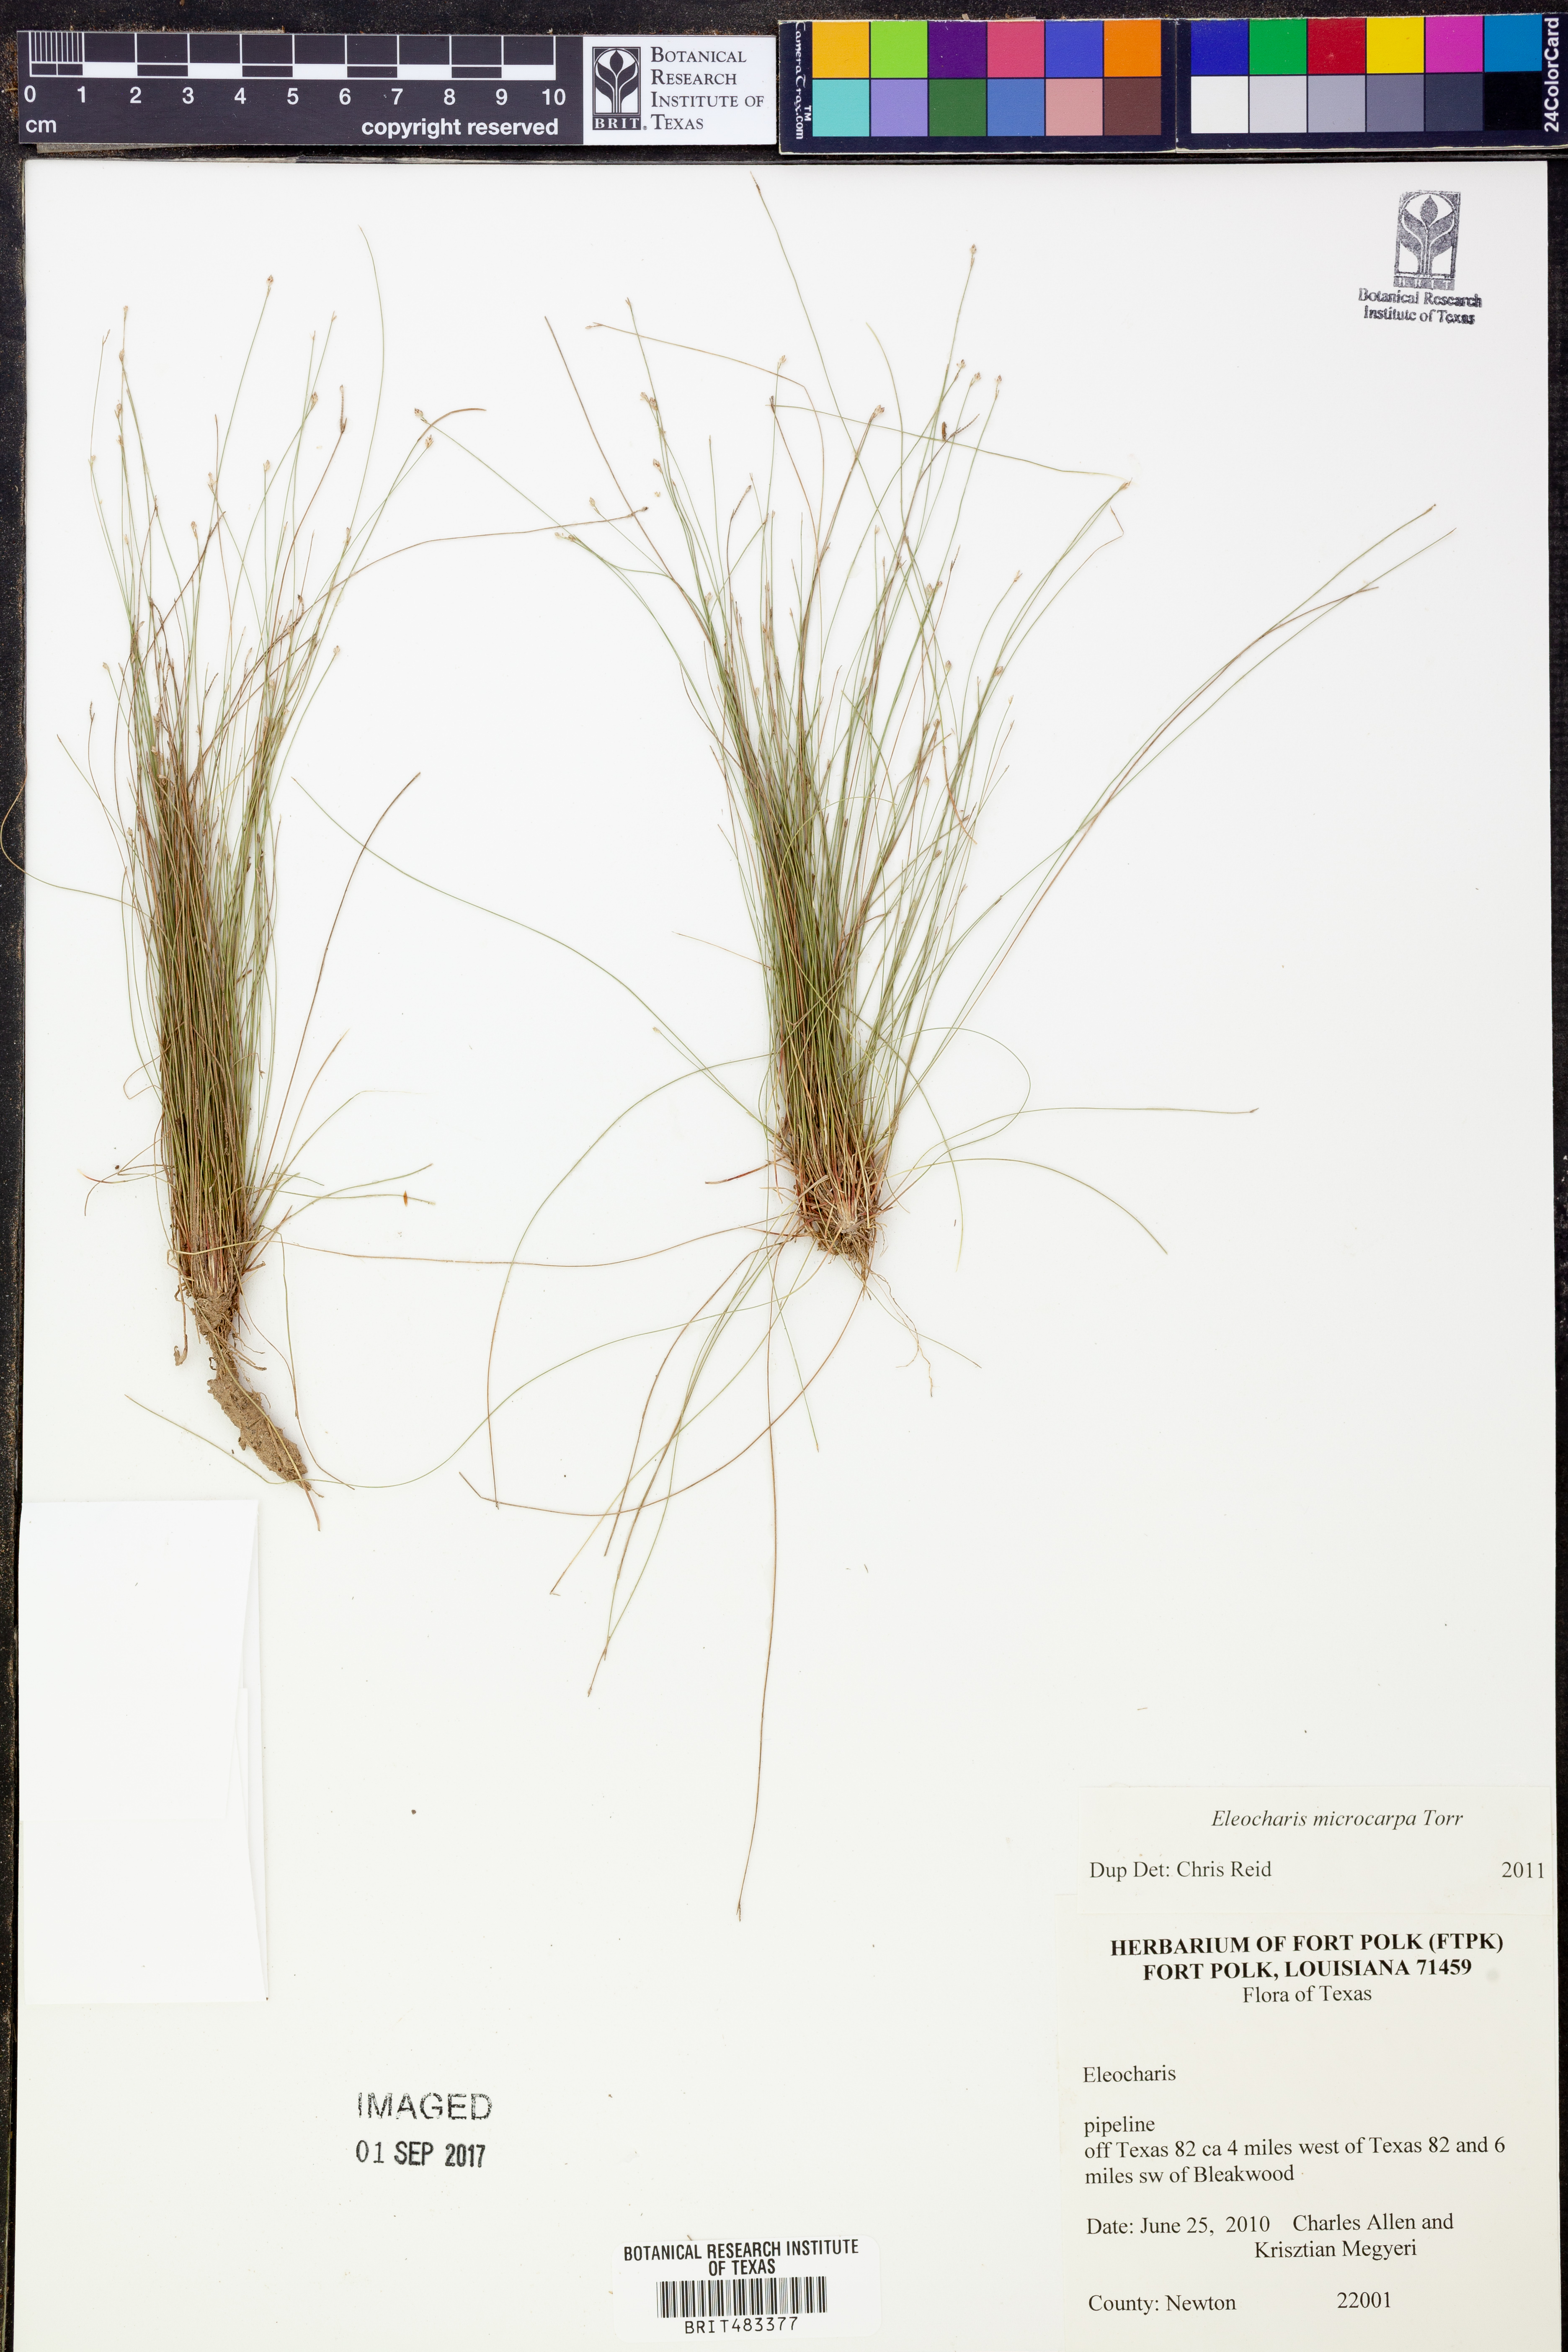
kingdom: Plantae
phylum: Tracheophyta
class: Liliopsida
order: Poales
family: Cyperaceae
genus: Eleocharis
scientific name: Eleocharis microcarpa
